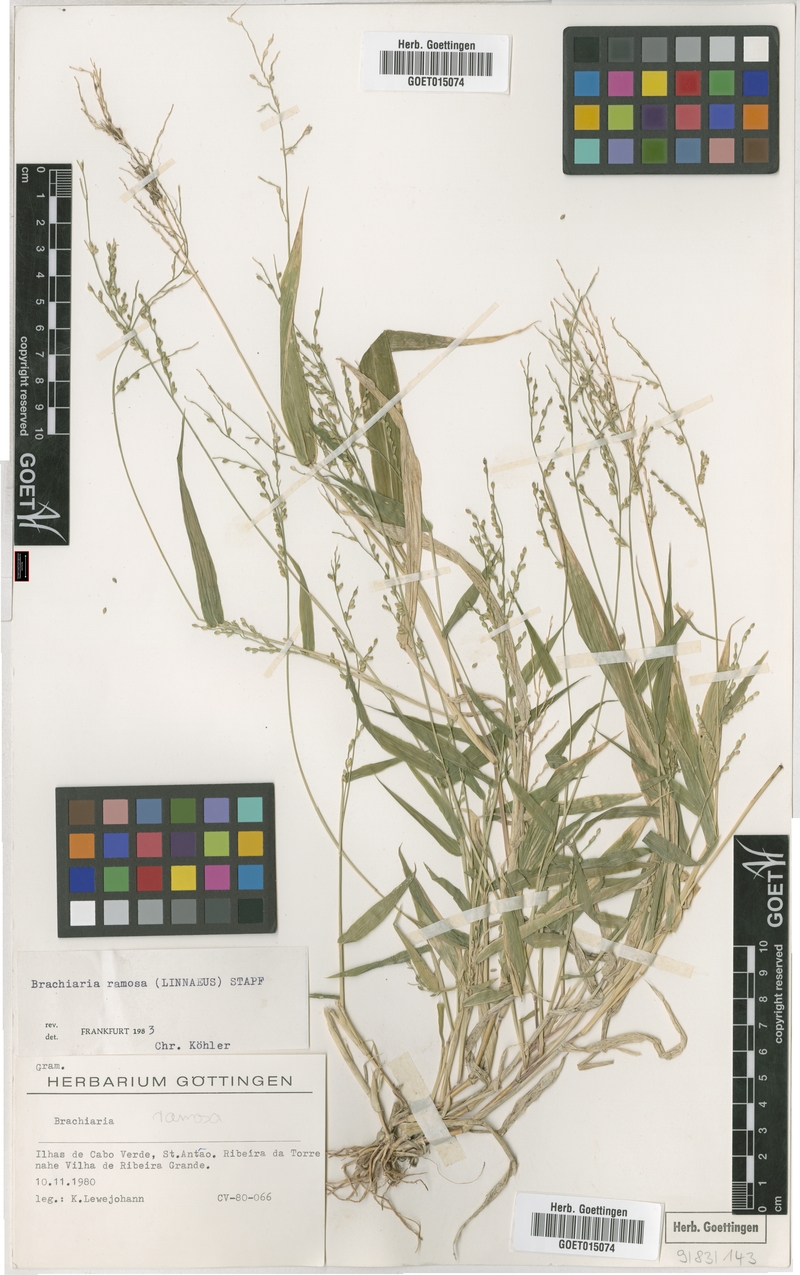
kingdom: Plantae
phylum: Tracheophyta
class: Liliopsida
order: Poales
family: Poaceae
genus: Urochloa
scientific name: Urochloa ramosa
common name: Browntop millet
